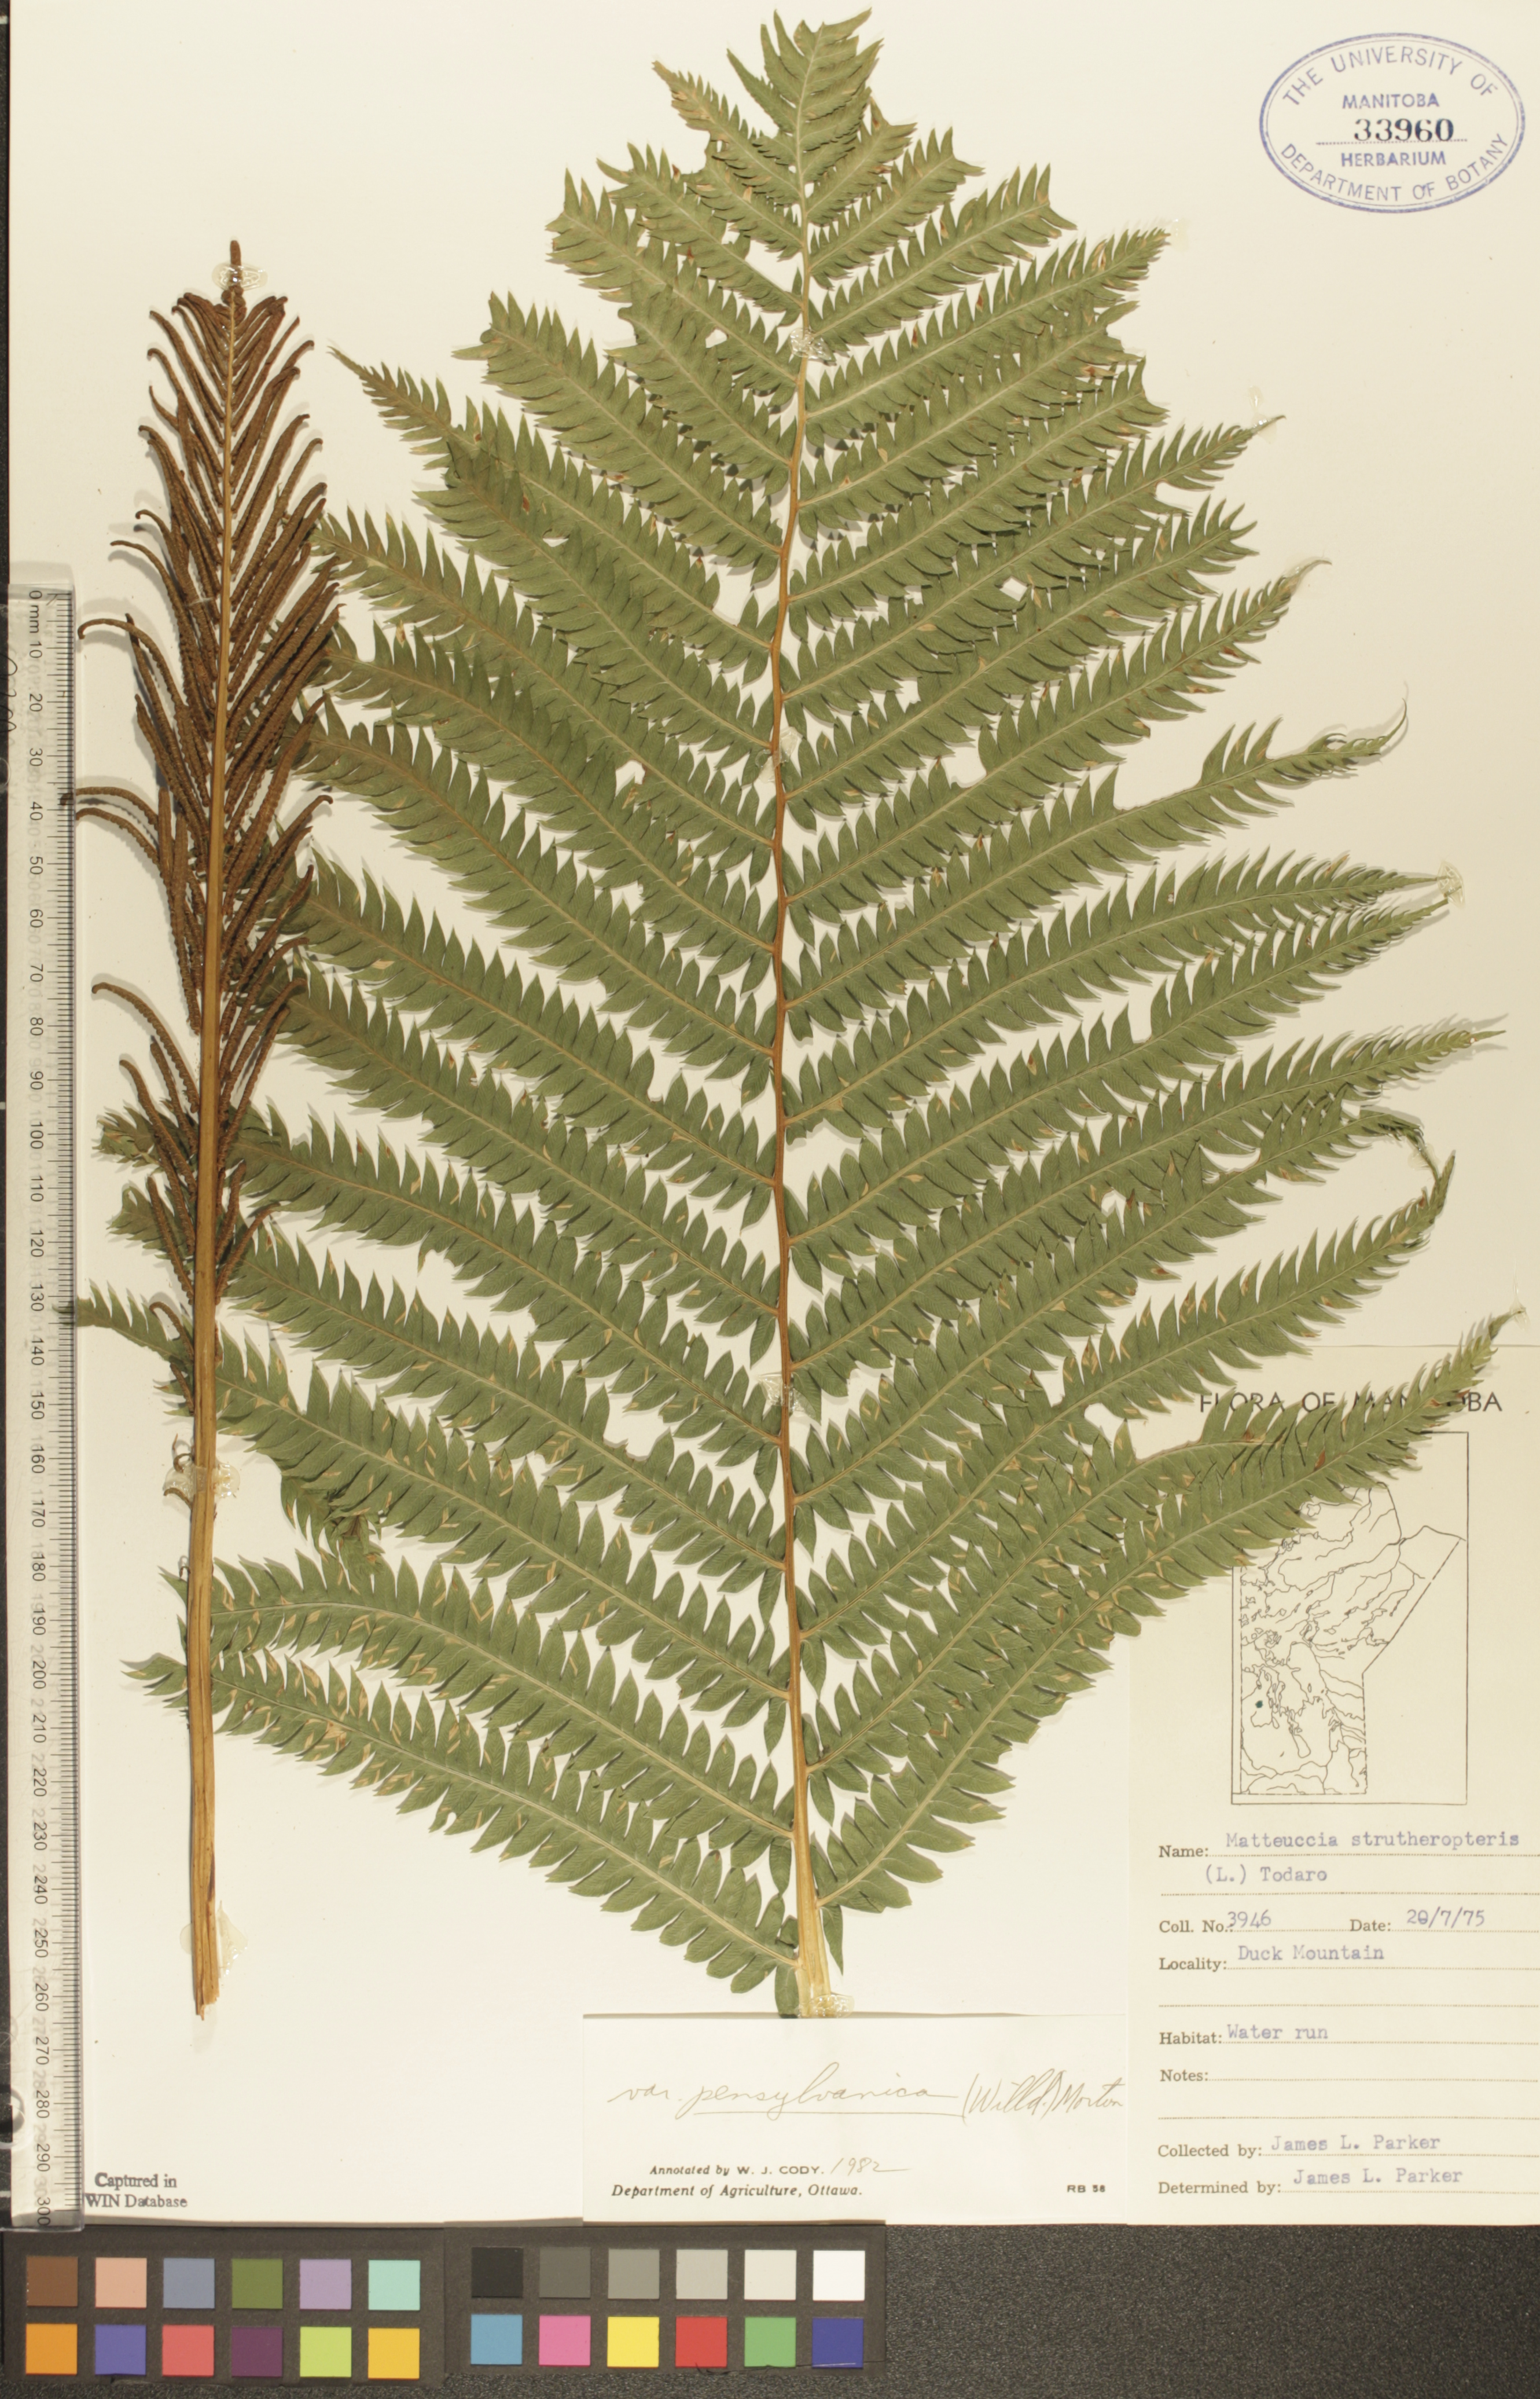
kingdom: Plantae
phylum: Tracheophyta
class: Polypodiopsida
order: Polypodiales
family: Onocleaceae
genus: Matteuccia
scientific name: Matteuccia pensylvanica
